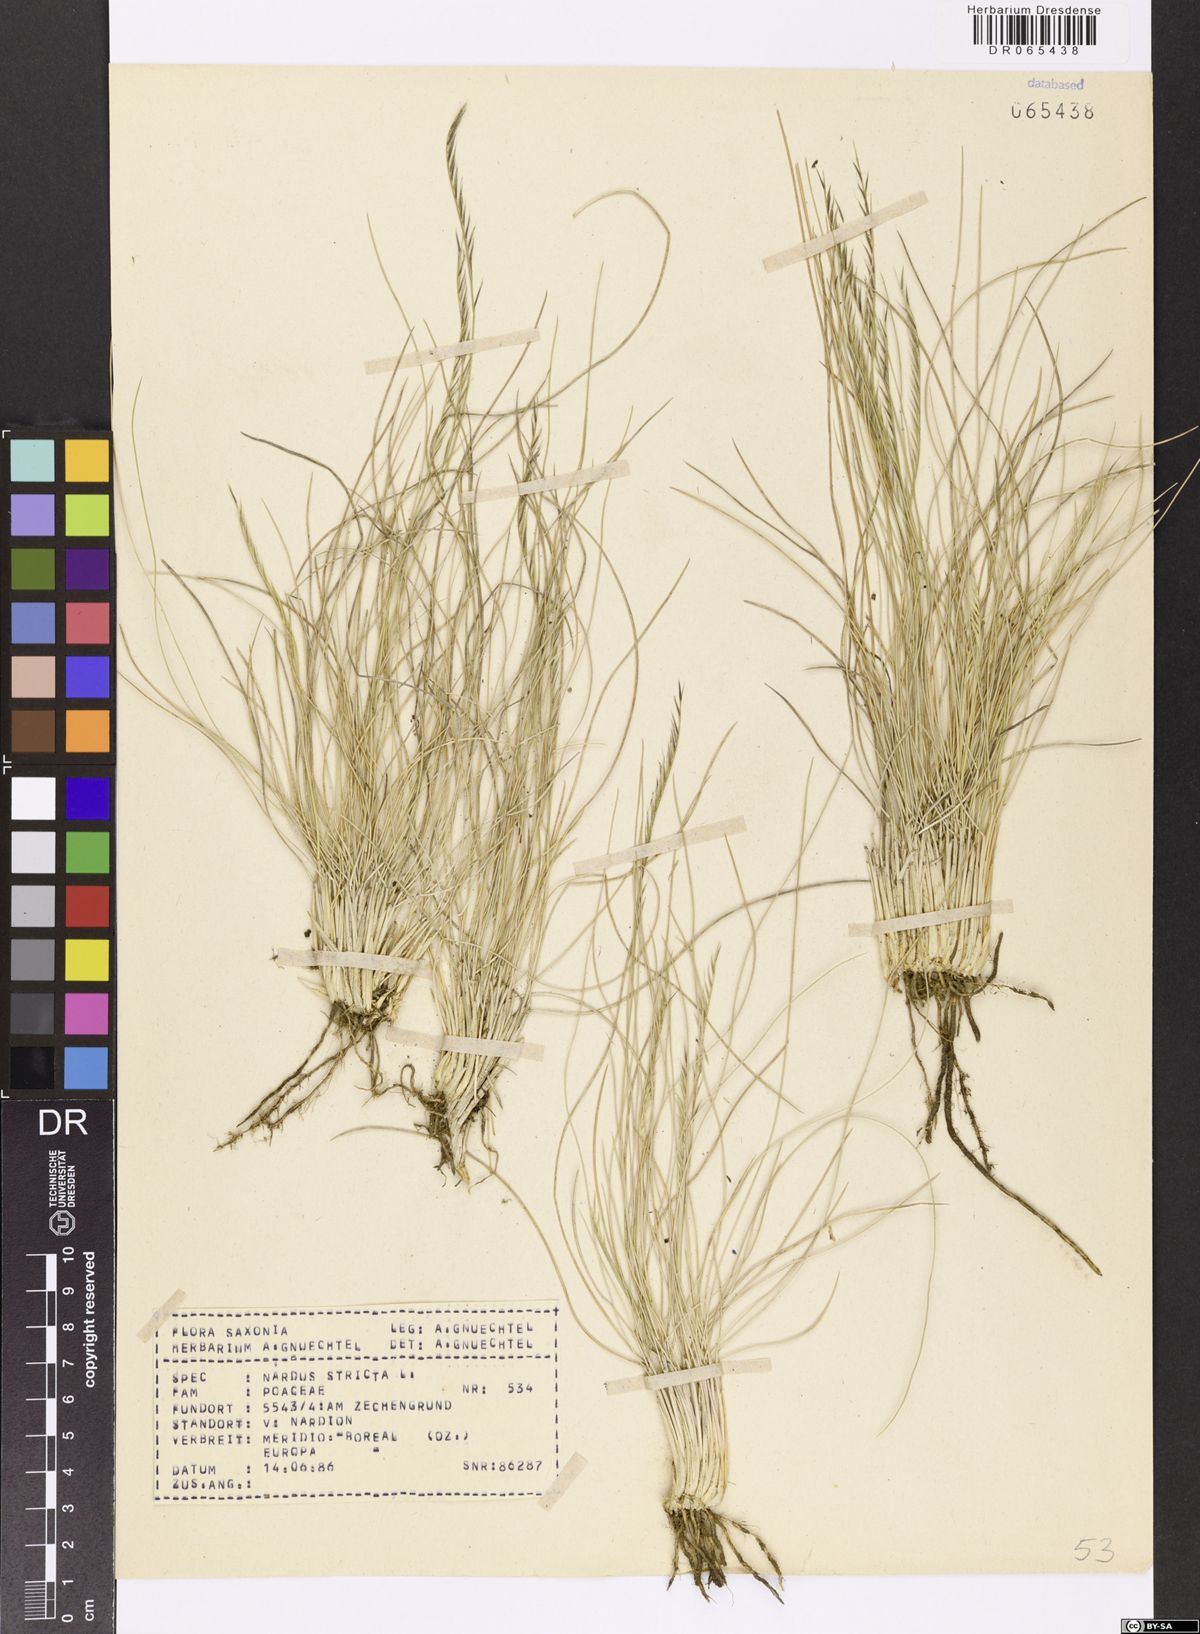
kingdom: Plantae
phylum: Tracheophyta
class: Liliopsida
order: Poales
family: Poaceae
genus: Nardus
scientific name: Nardus stricta
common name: Mat-grass
